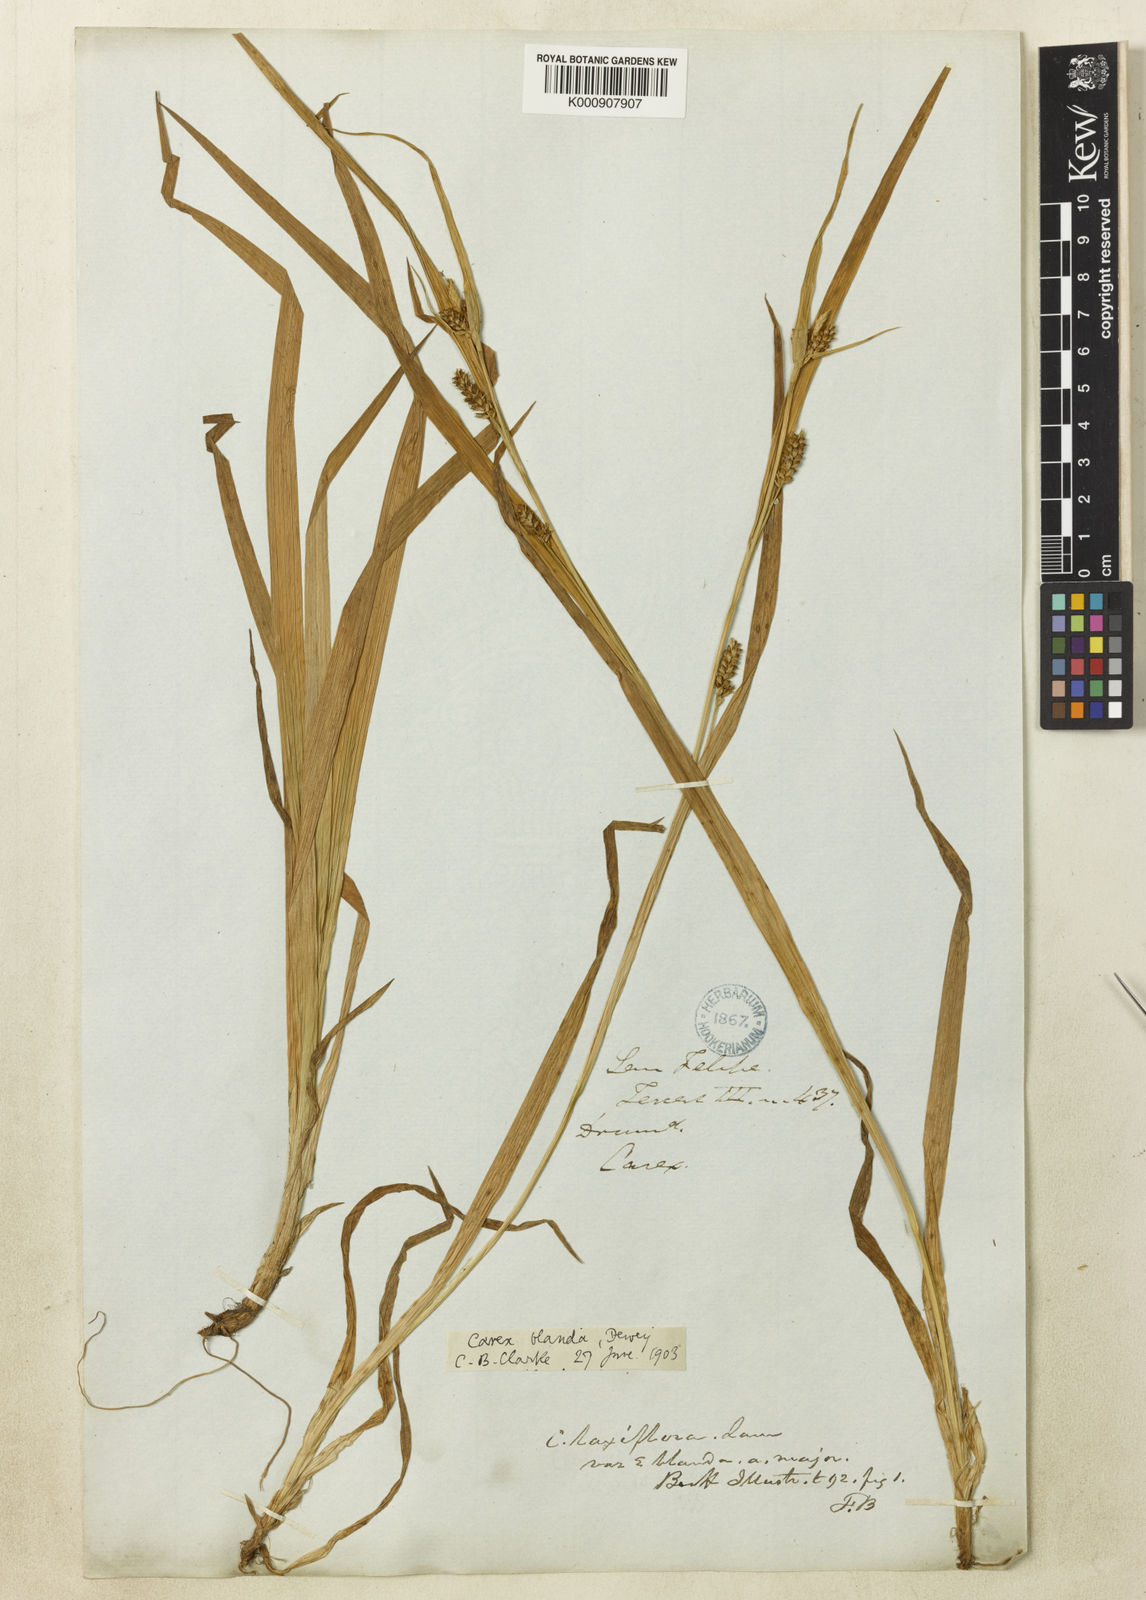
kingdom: Plantae
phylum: Tracheophyta
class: Liliopsida
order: Poales
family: Cyperaceae
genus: Carex
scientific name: Carex blanda
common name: Bland sedge
